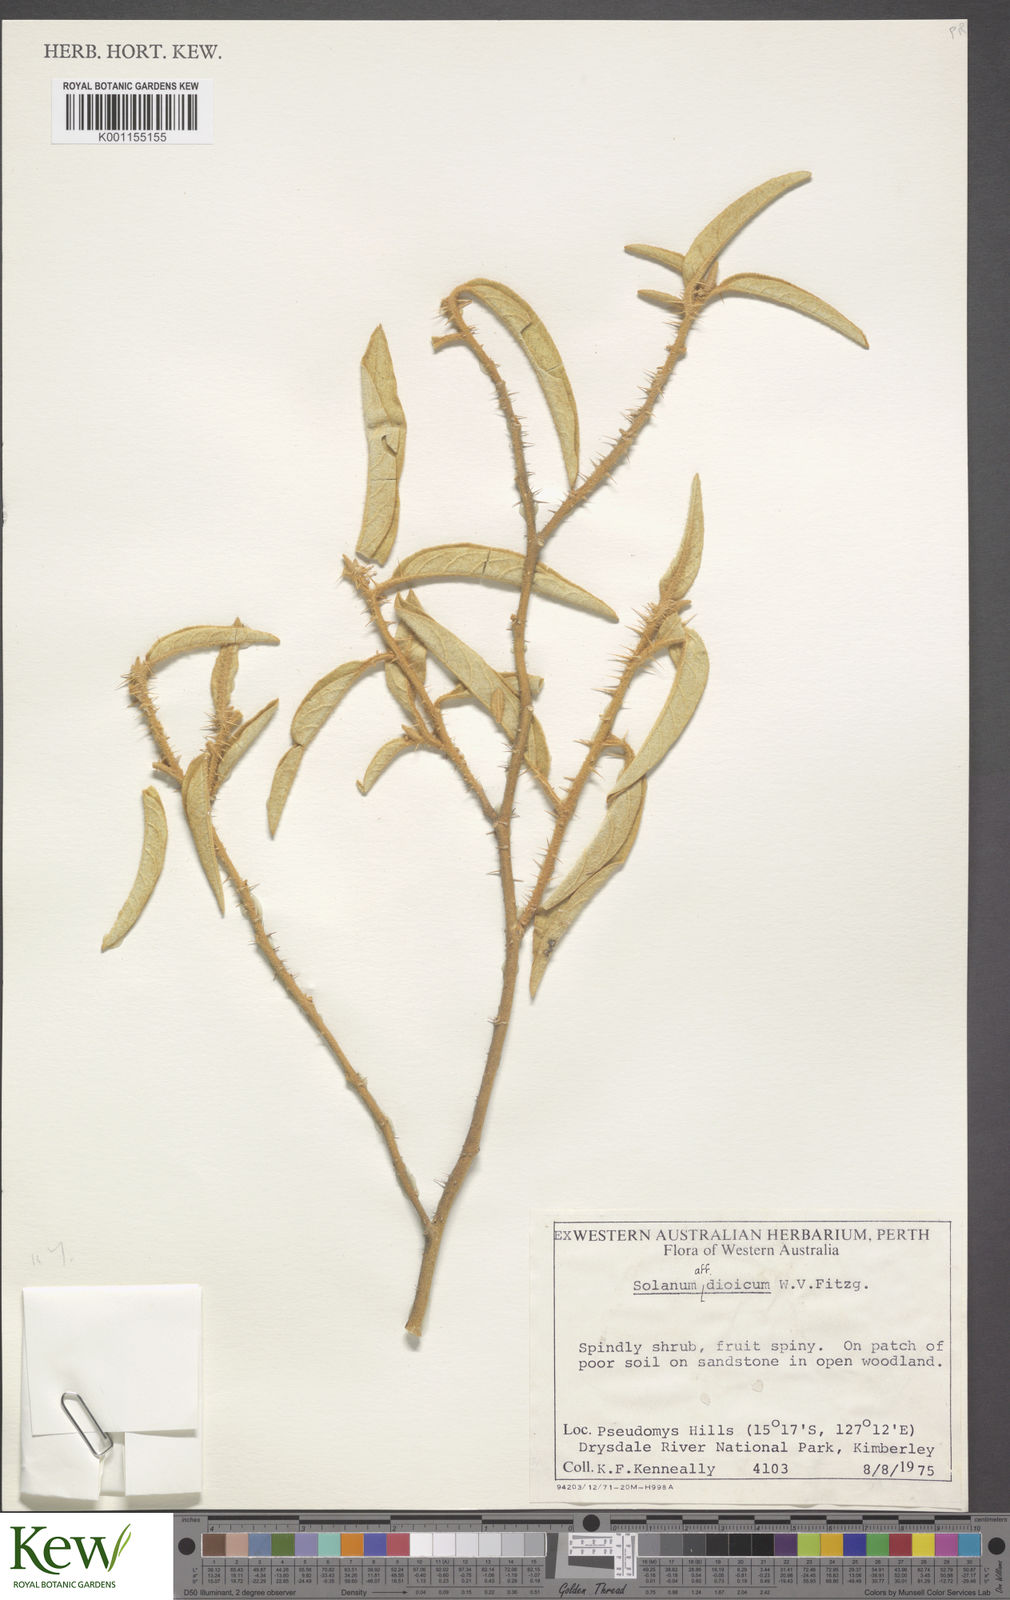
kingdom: Plantae
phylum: Tracheophyta
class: Magnoliopsida
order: Solanales
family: Solanaceae
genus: Solanum
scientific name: Solanum dioicum
